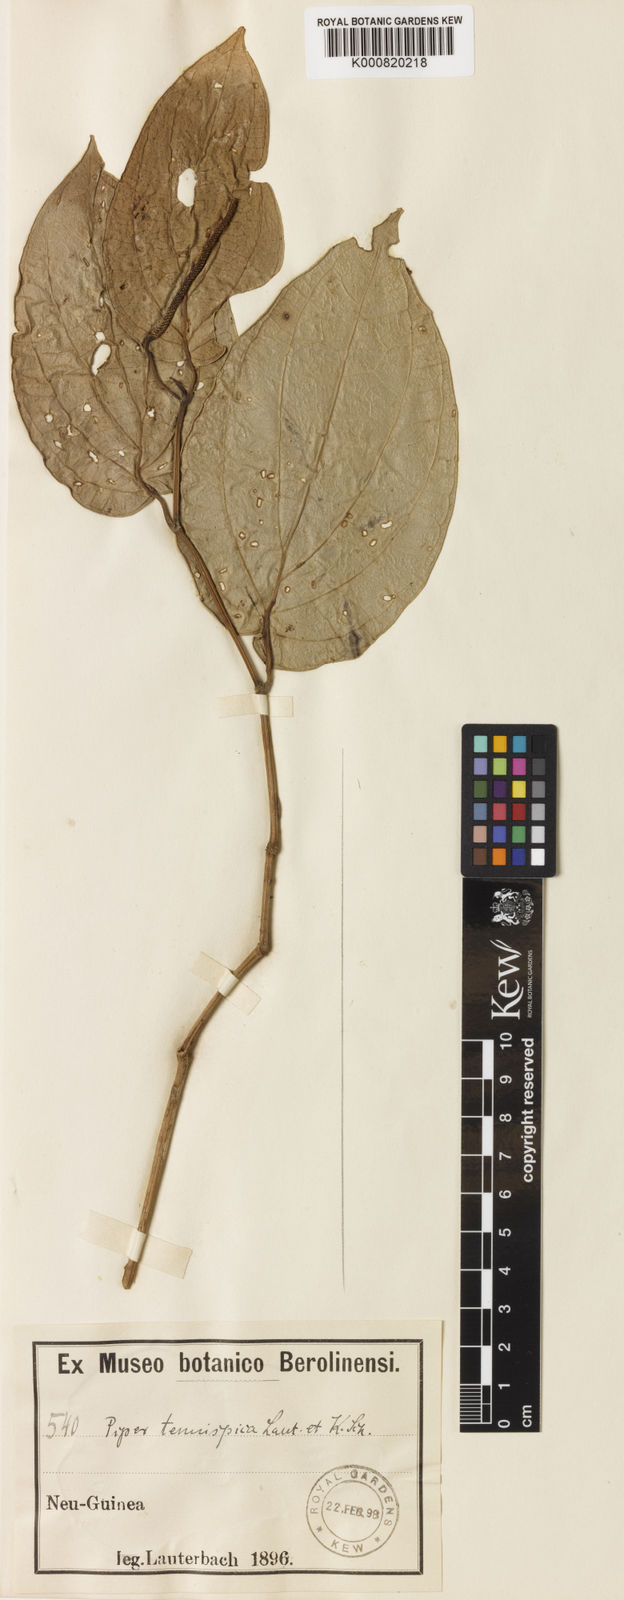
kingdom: Plantae
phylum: Tracheophyta
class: Magnoliopsida
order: Piperales
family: Piperaceae
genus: Piper
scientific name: Piper
